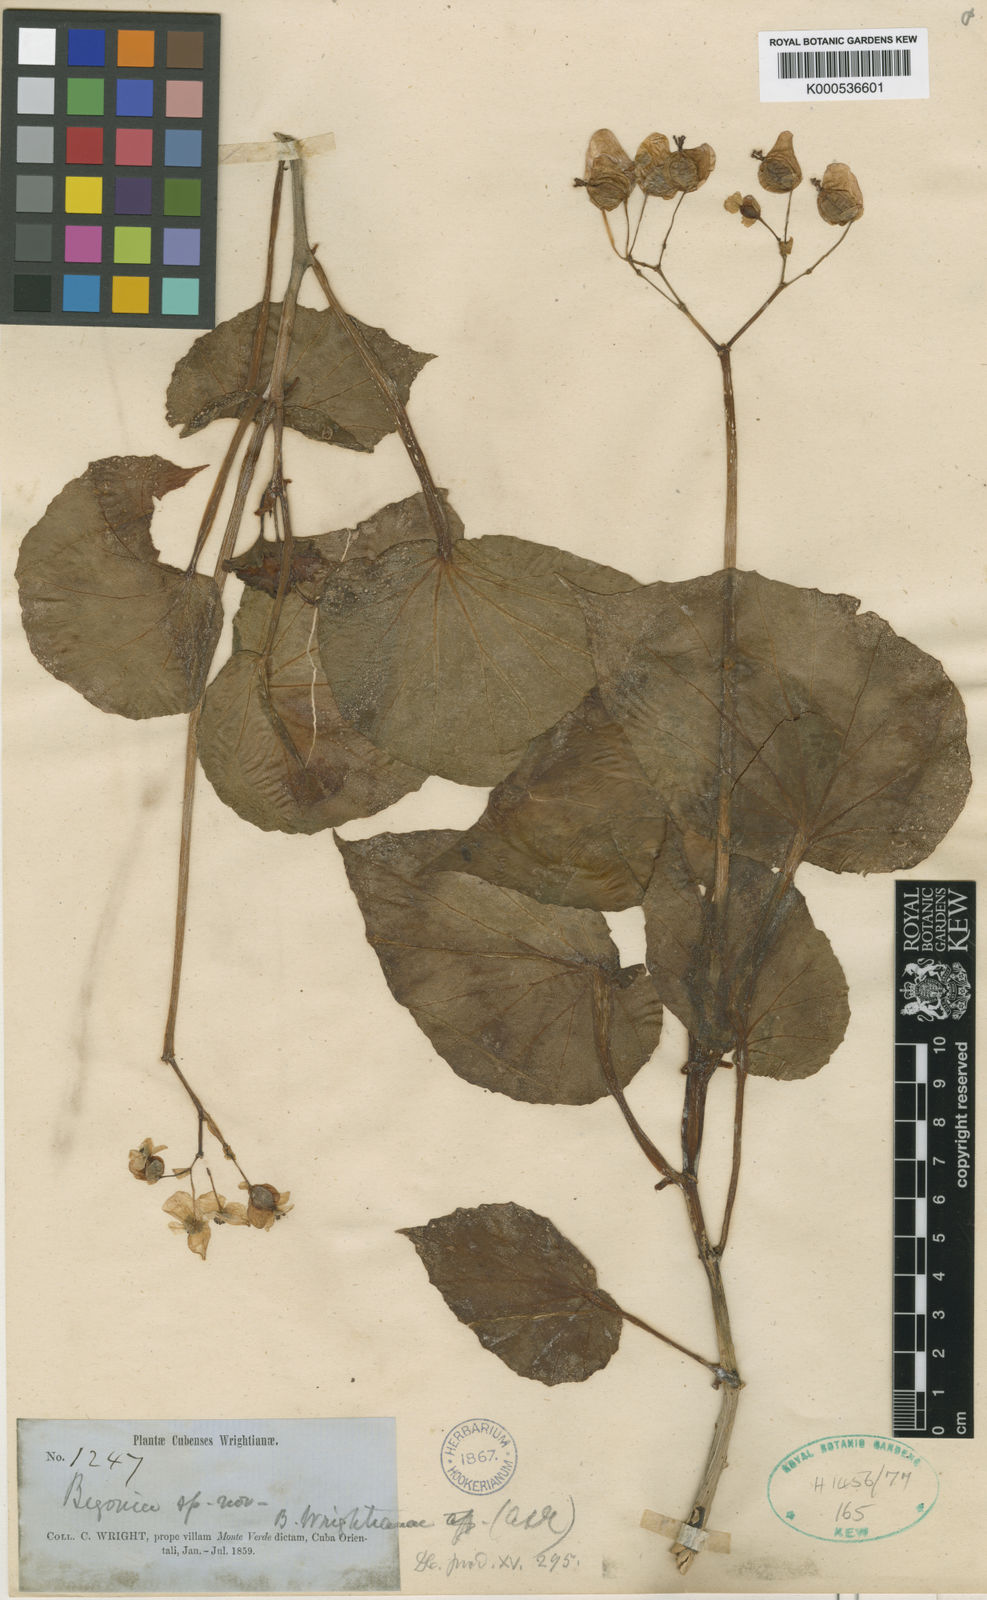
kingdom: Plantae
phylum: Tracheophyta
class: Magnoliopsida
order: Cucurbitales
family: Begoniaceae
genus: Begonia
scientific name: Begonia wrightiana
